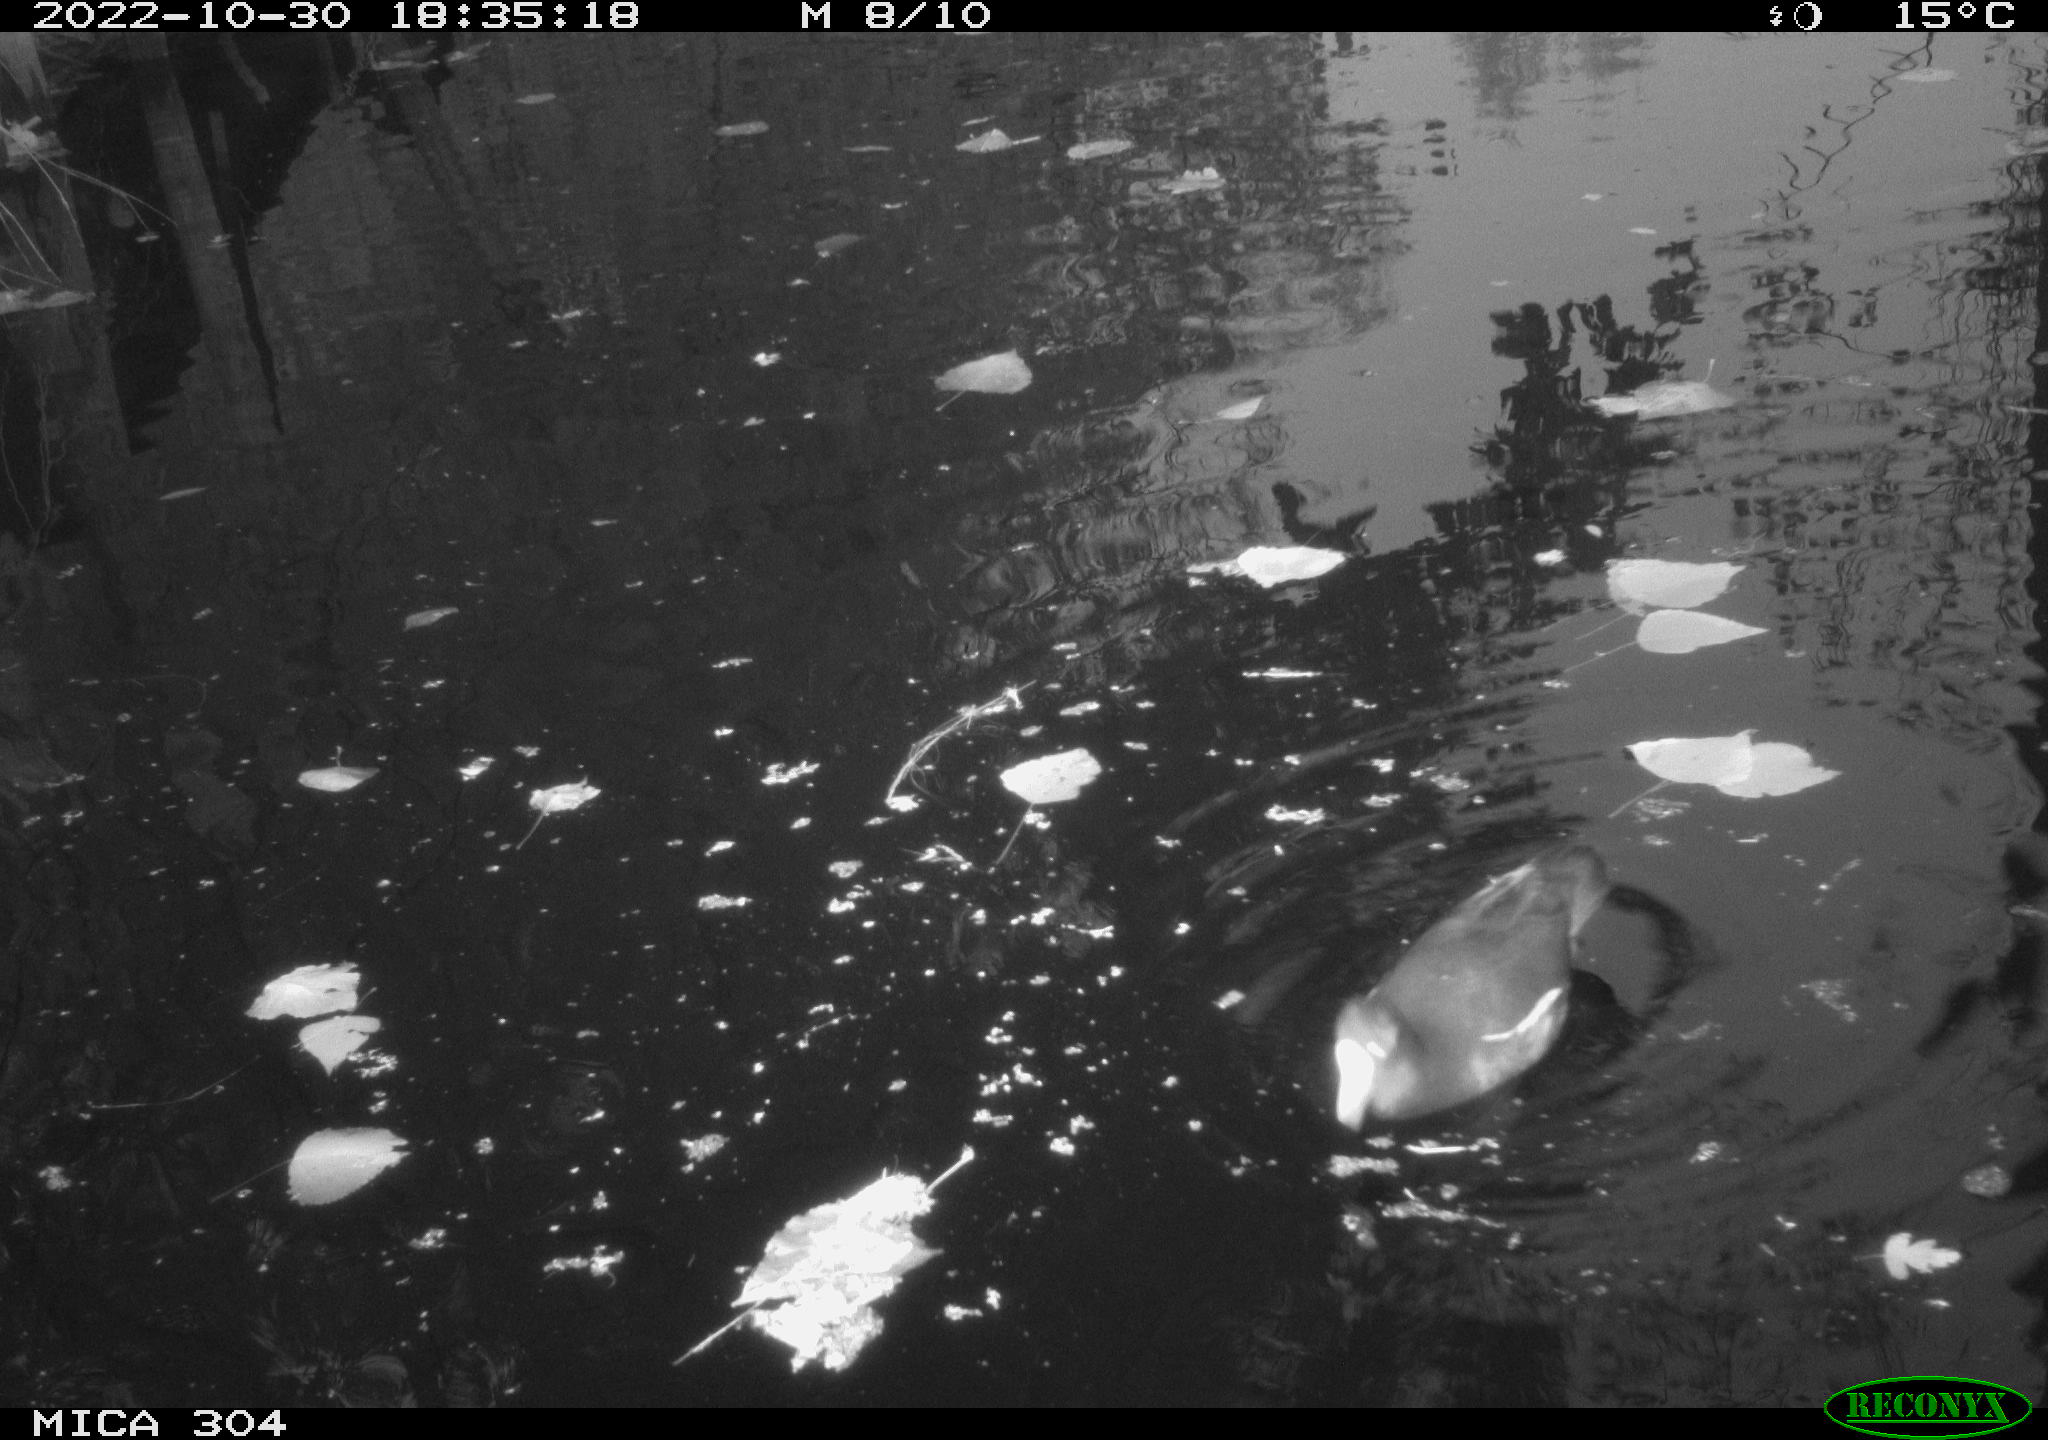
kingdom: Animalia
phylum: Chordata
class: Aves
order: Gruiformes
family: Rallidae
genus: Gallinula
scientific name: Gallinula chloropus
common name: Common moorhen
